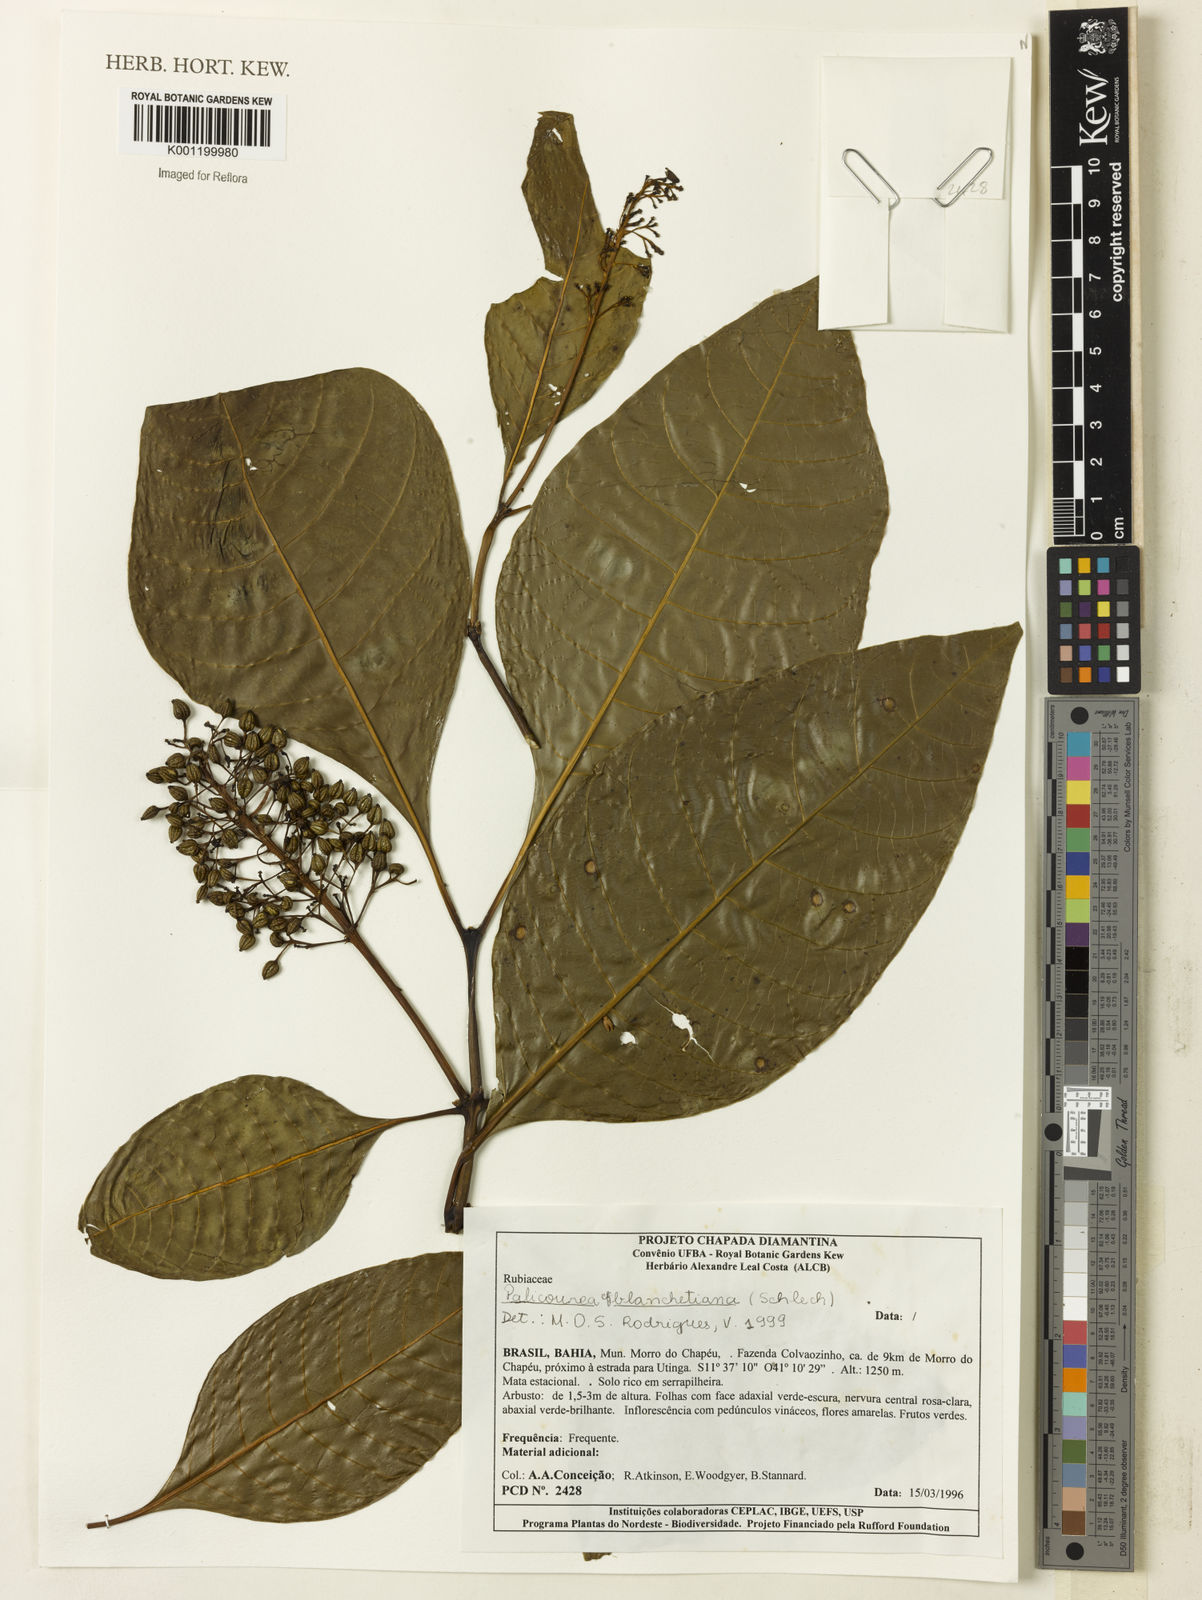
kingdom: Plantae
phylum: Tracheophyta
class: Magnoliopsida
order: Gentianales
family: Rubiaceae
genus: Palicourea
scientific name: Palicourea blanchetiana
